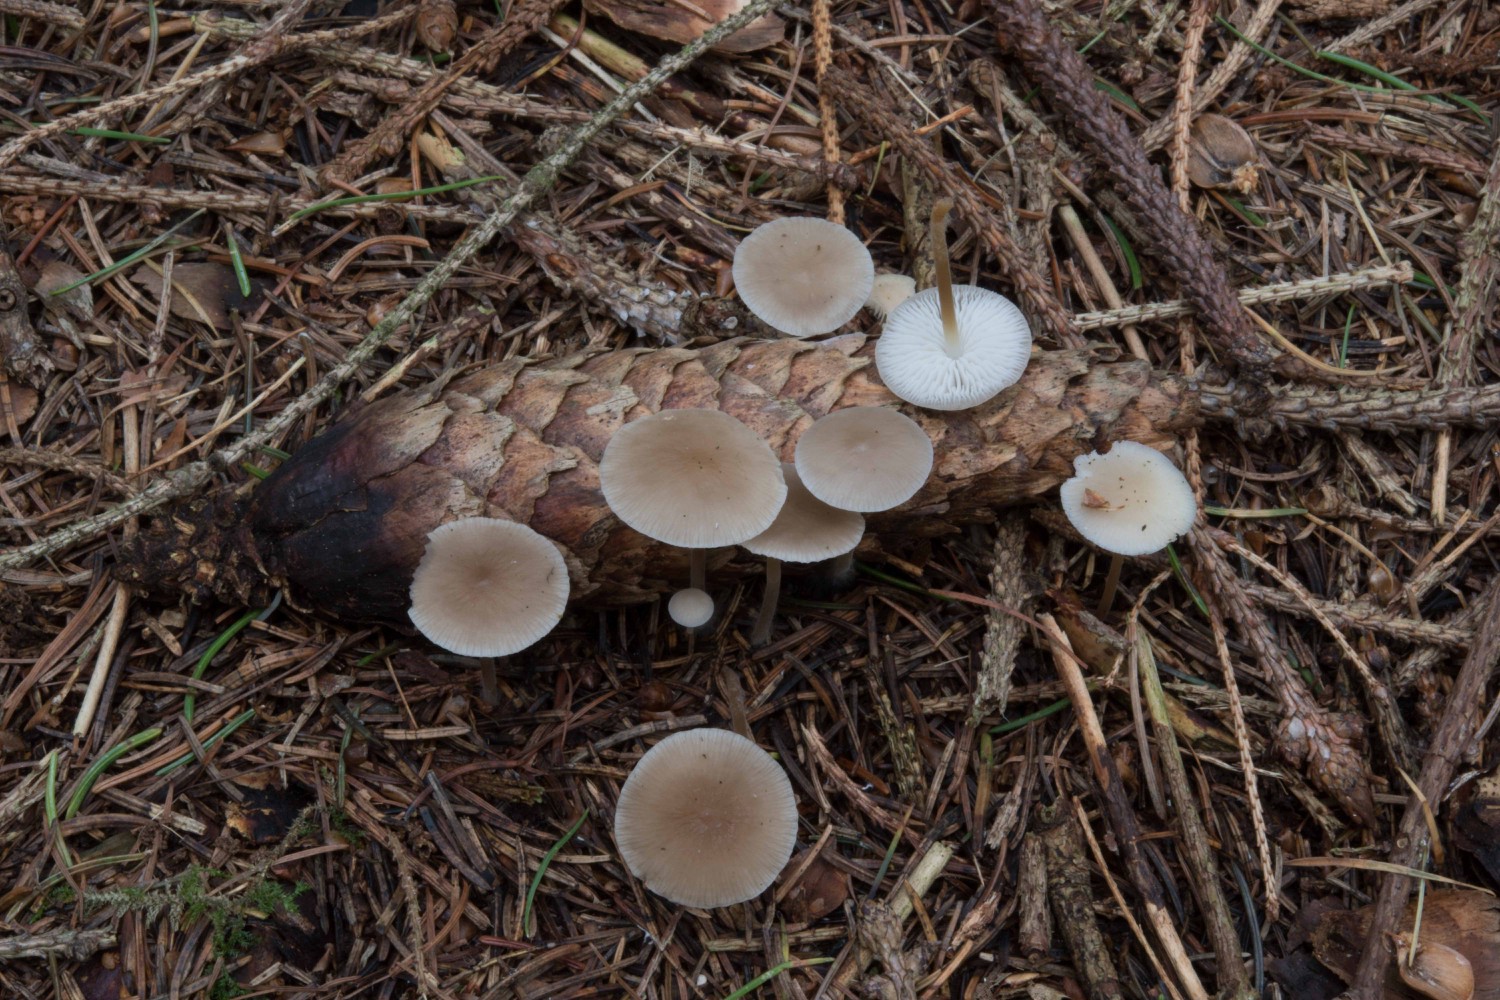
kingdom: Fungi
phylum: Basidiomycota
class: Agaricomycetes
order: Agaricales
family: Physalacriaceae
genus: Strobilurus
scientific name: Strobilurus esculentus
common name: gran-koglehat
